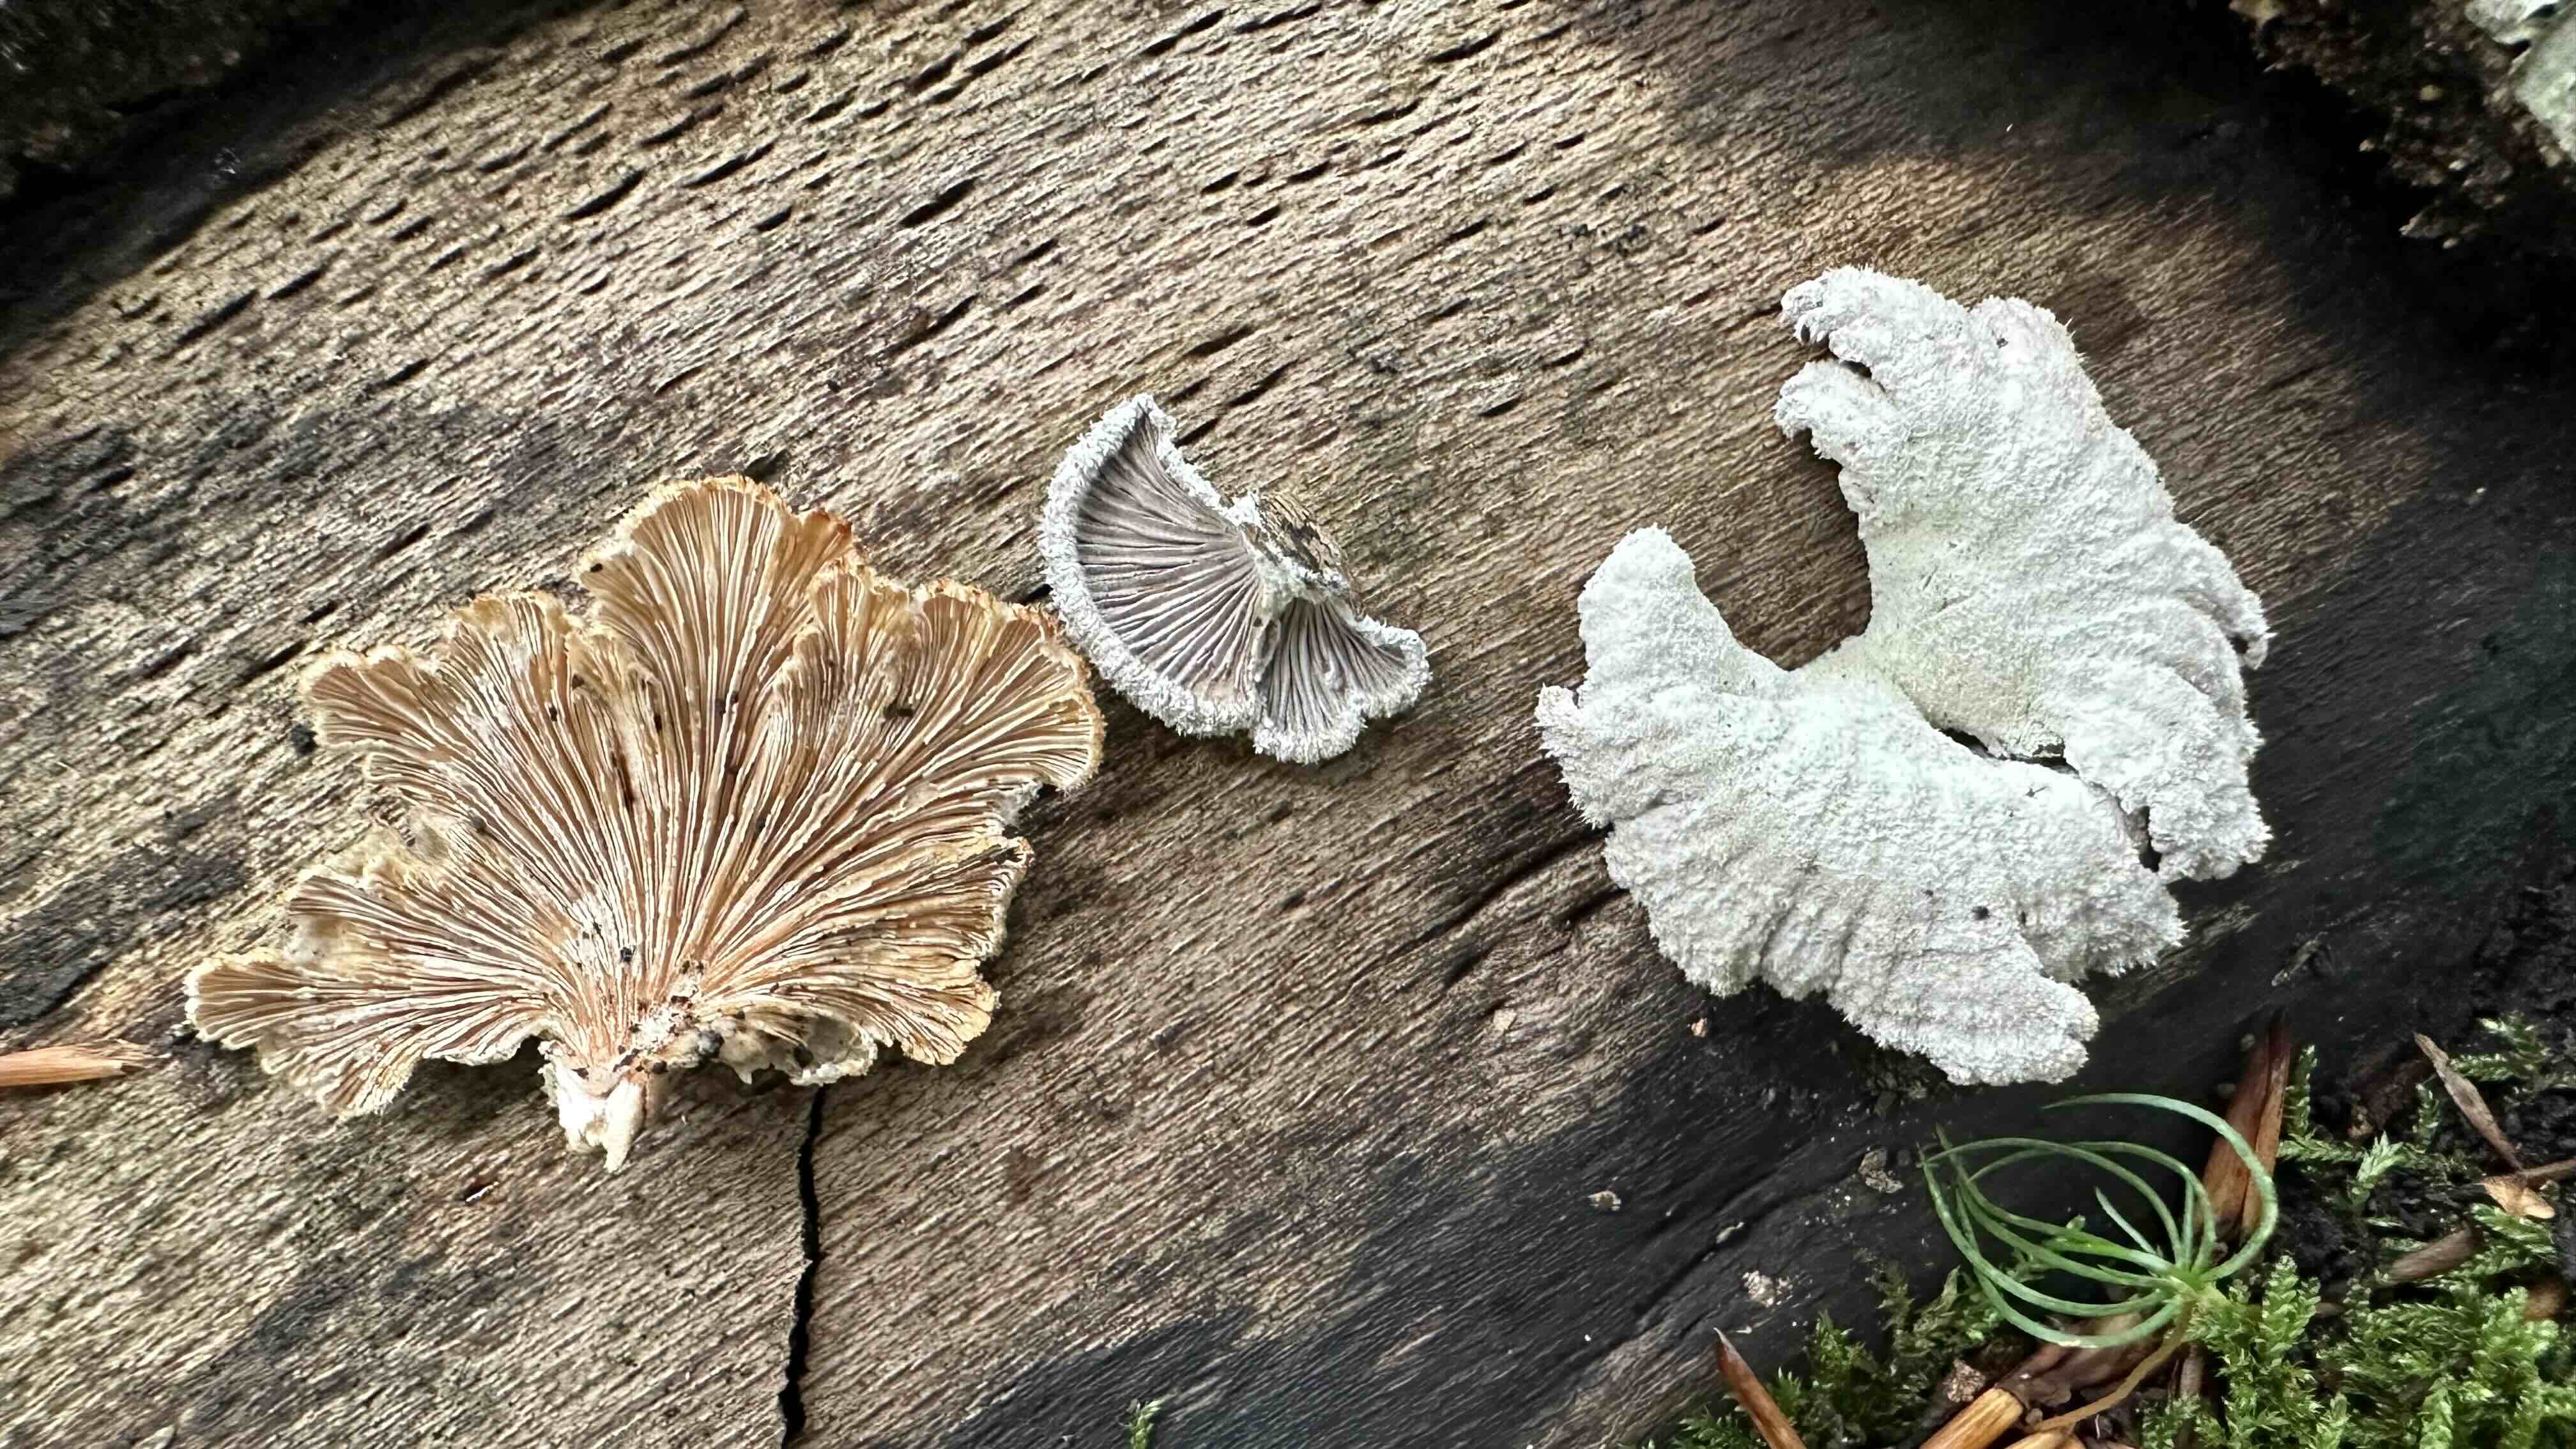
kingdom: Fungi
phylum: Basidiomycota
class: Agaricomycetes
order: Agaricales
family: Schizophyllaceae
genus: Schizophyllum
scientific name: Schizophyllum commune
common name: kløvblad
